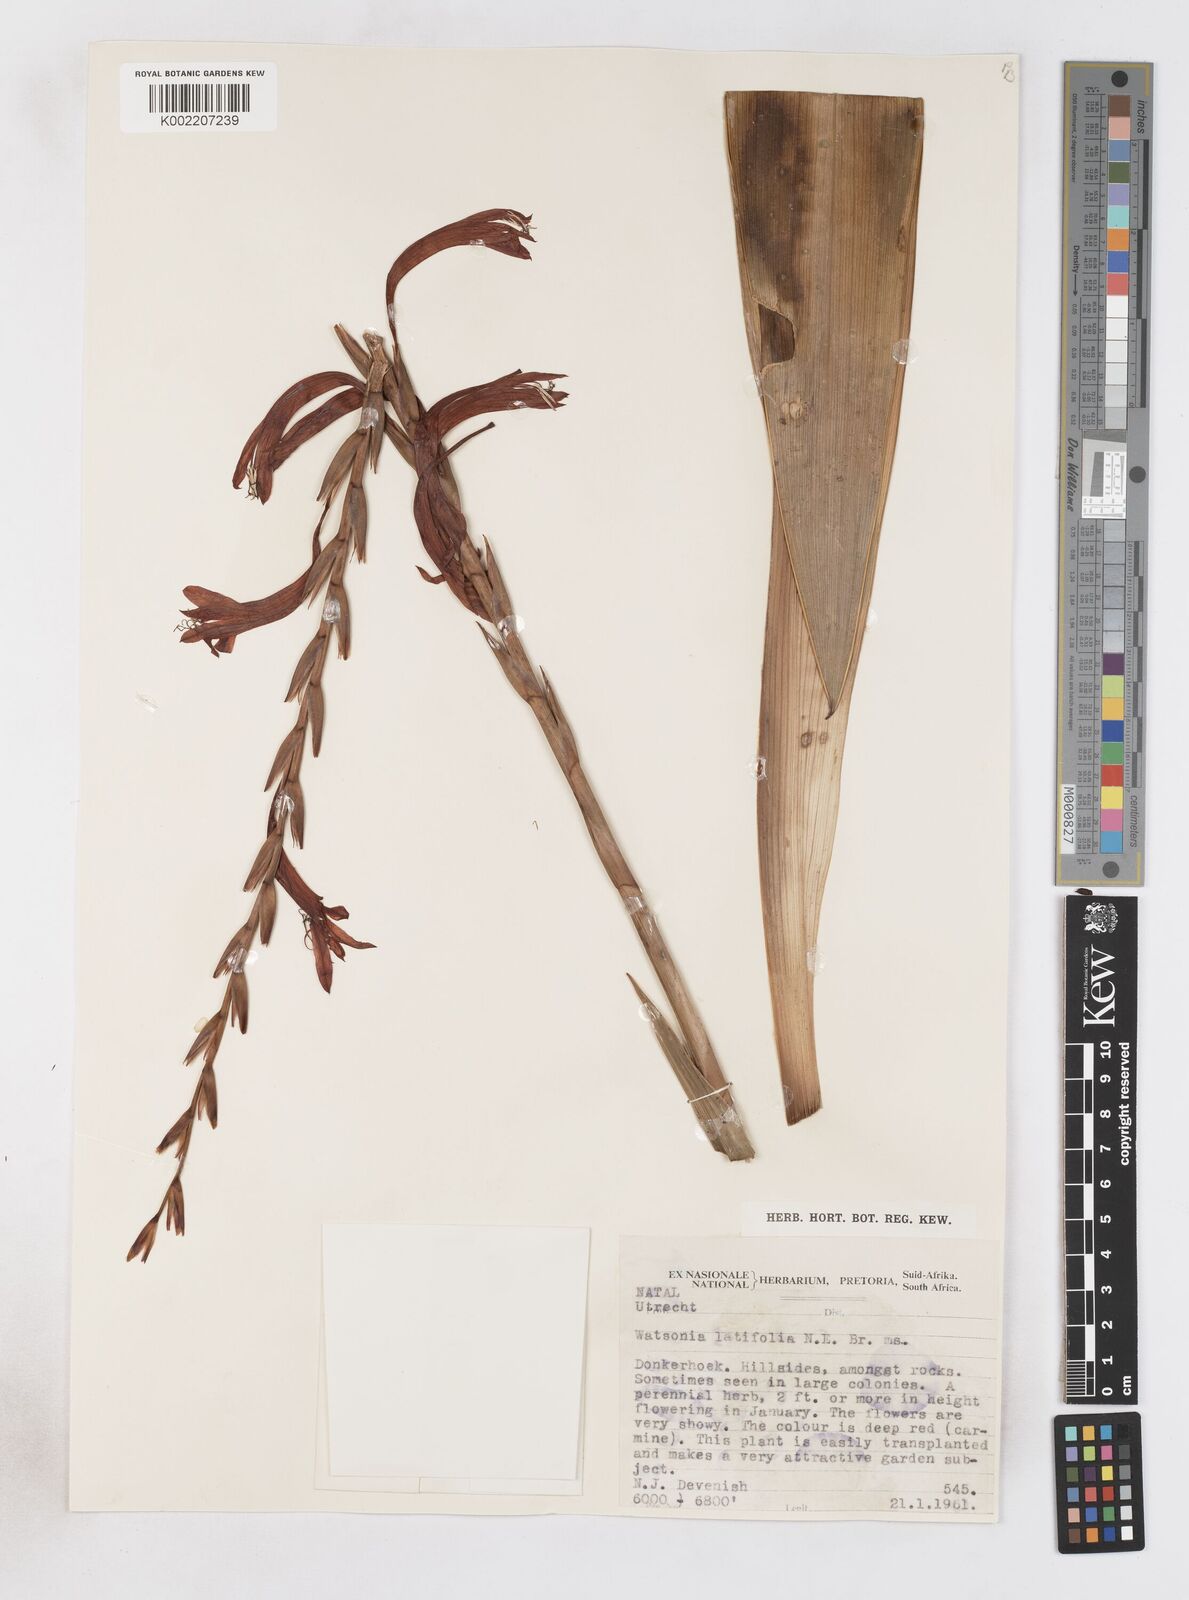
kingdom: Plantae
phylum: Tracheophyta
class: Liliopsida
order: Asparagales
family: Iridaceae
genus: Watsonia
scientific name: Watsonia latifolia
